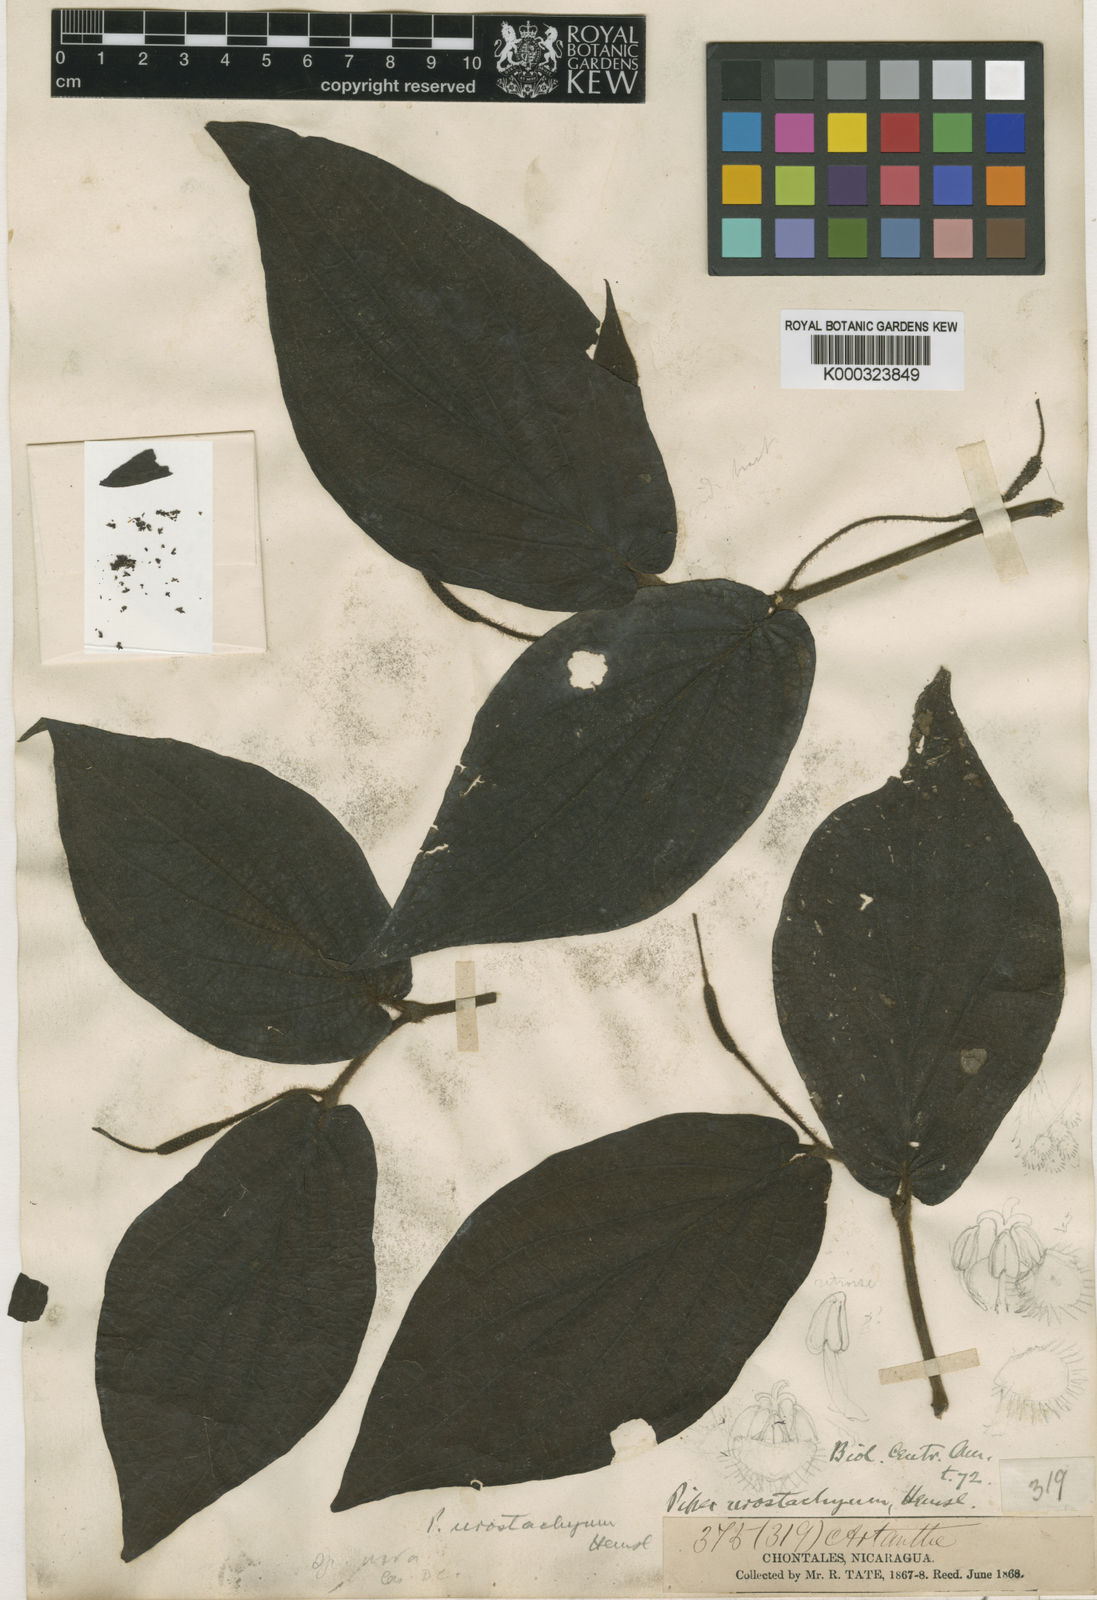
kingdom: Plantae
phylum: Tracheophyta
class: Magnoliopsida
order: Piperales
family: Piperaceae
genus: Piper
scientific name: Piper urostachyum
